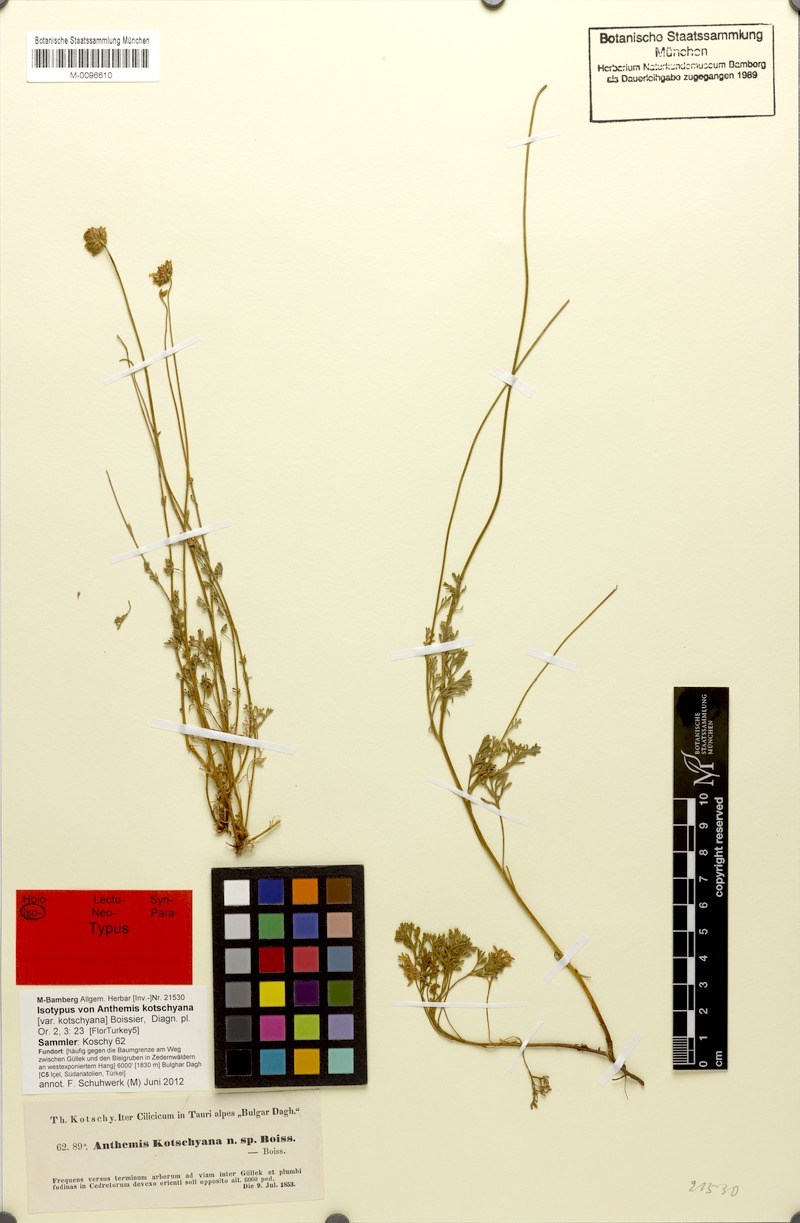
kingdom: Plantae
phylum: Tracheophyta
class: Magnoliopsida
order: Asterales
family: Asteraceae
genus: Anthemis
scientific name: Anthemis kotschyana
